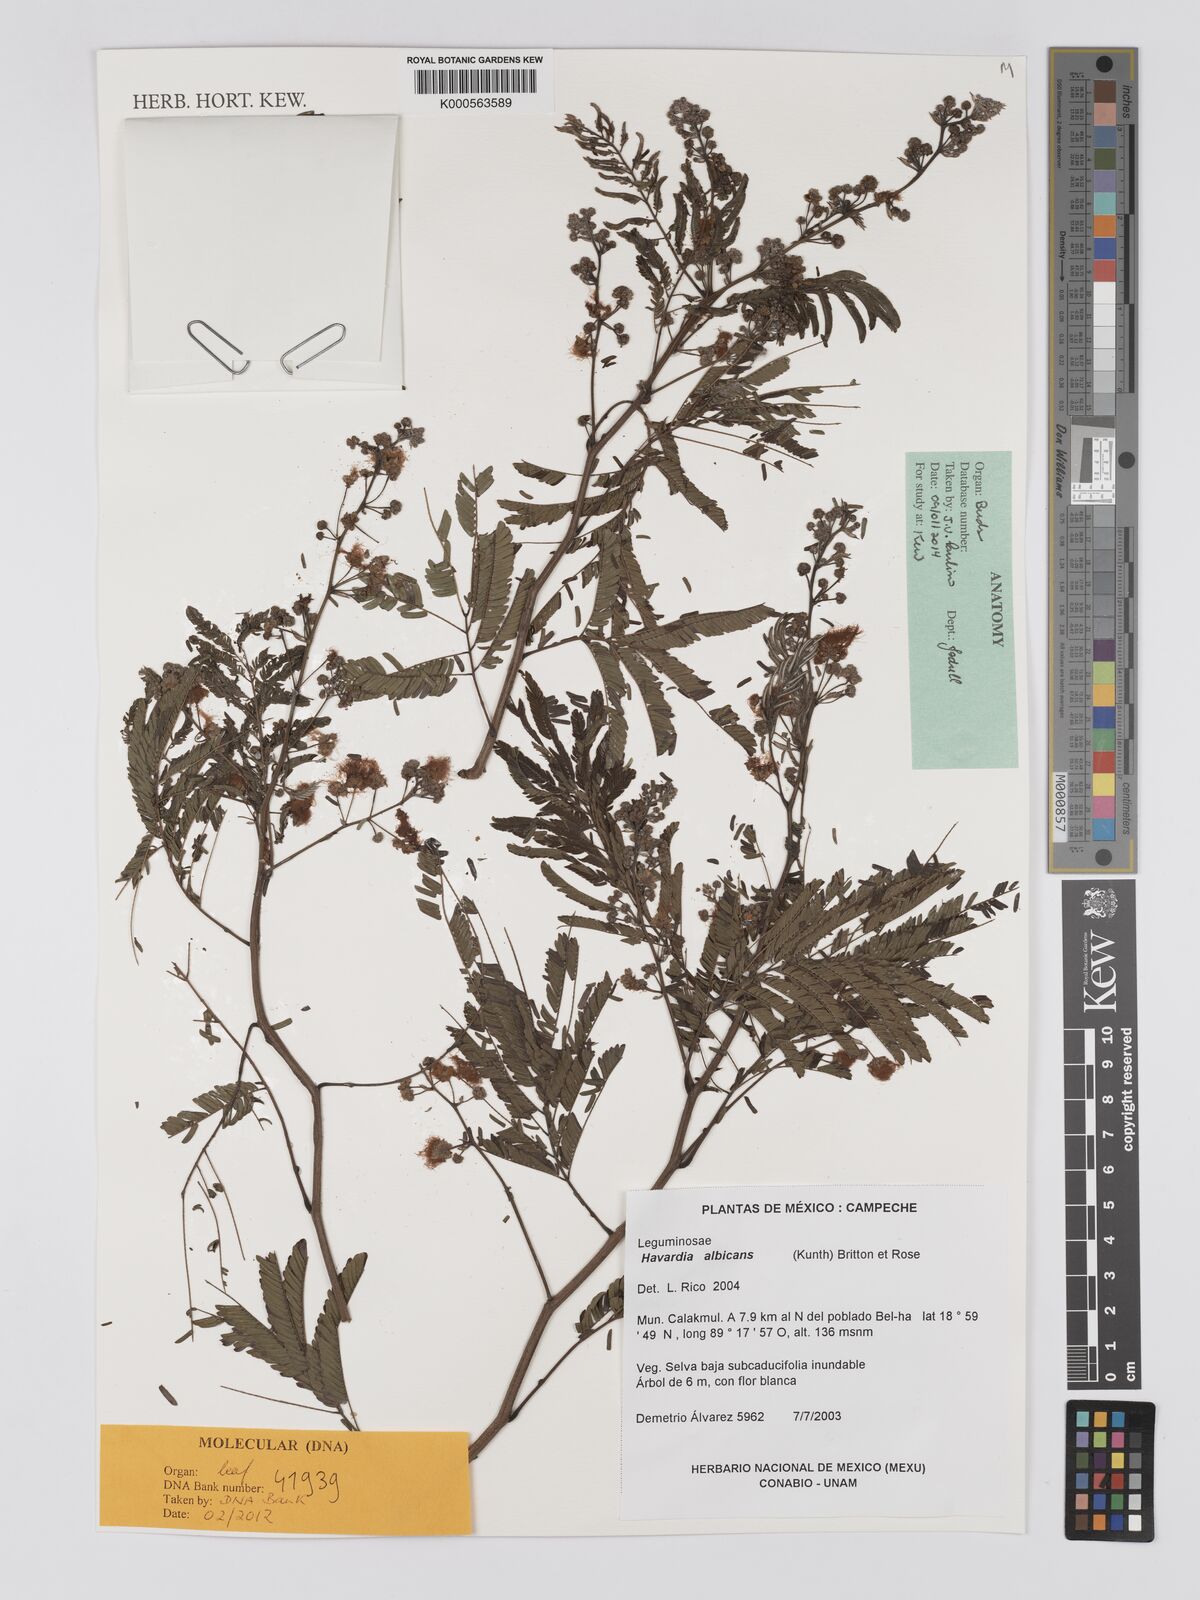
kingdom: Plantae
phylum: Tracheophyta
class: Magnoliopsida
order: Fabales
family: Fabaceae
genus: Havardia
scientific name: Havardia albicans
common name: Huisache
